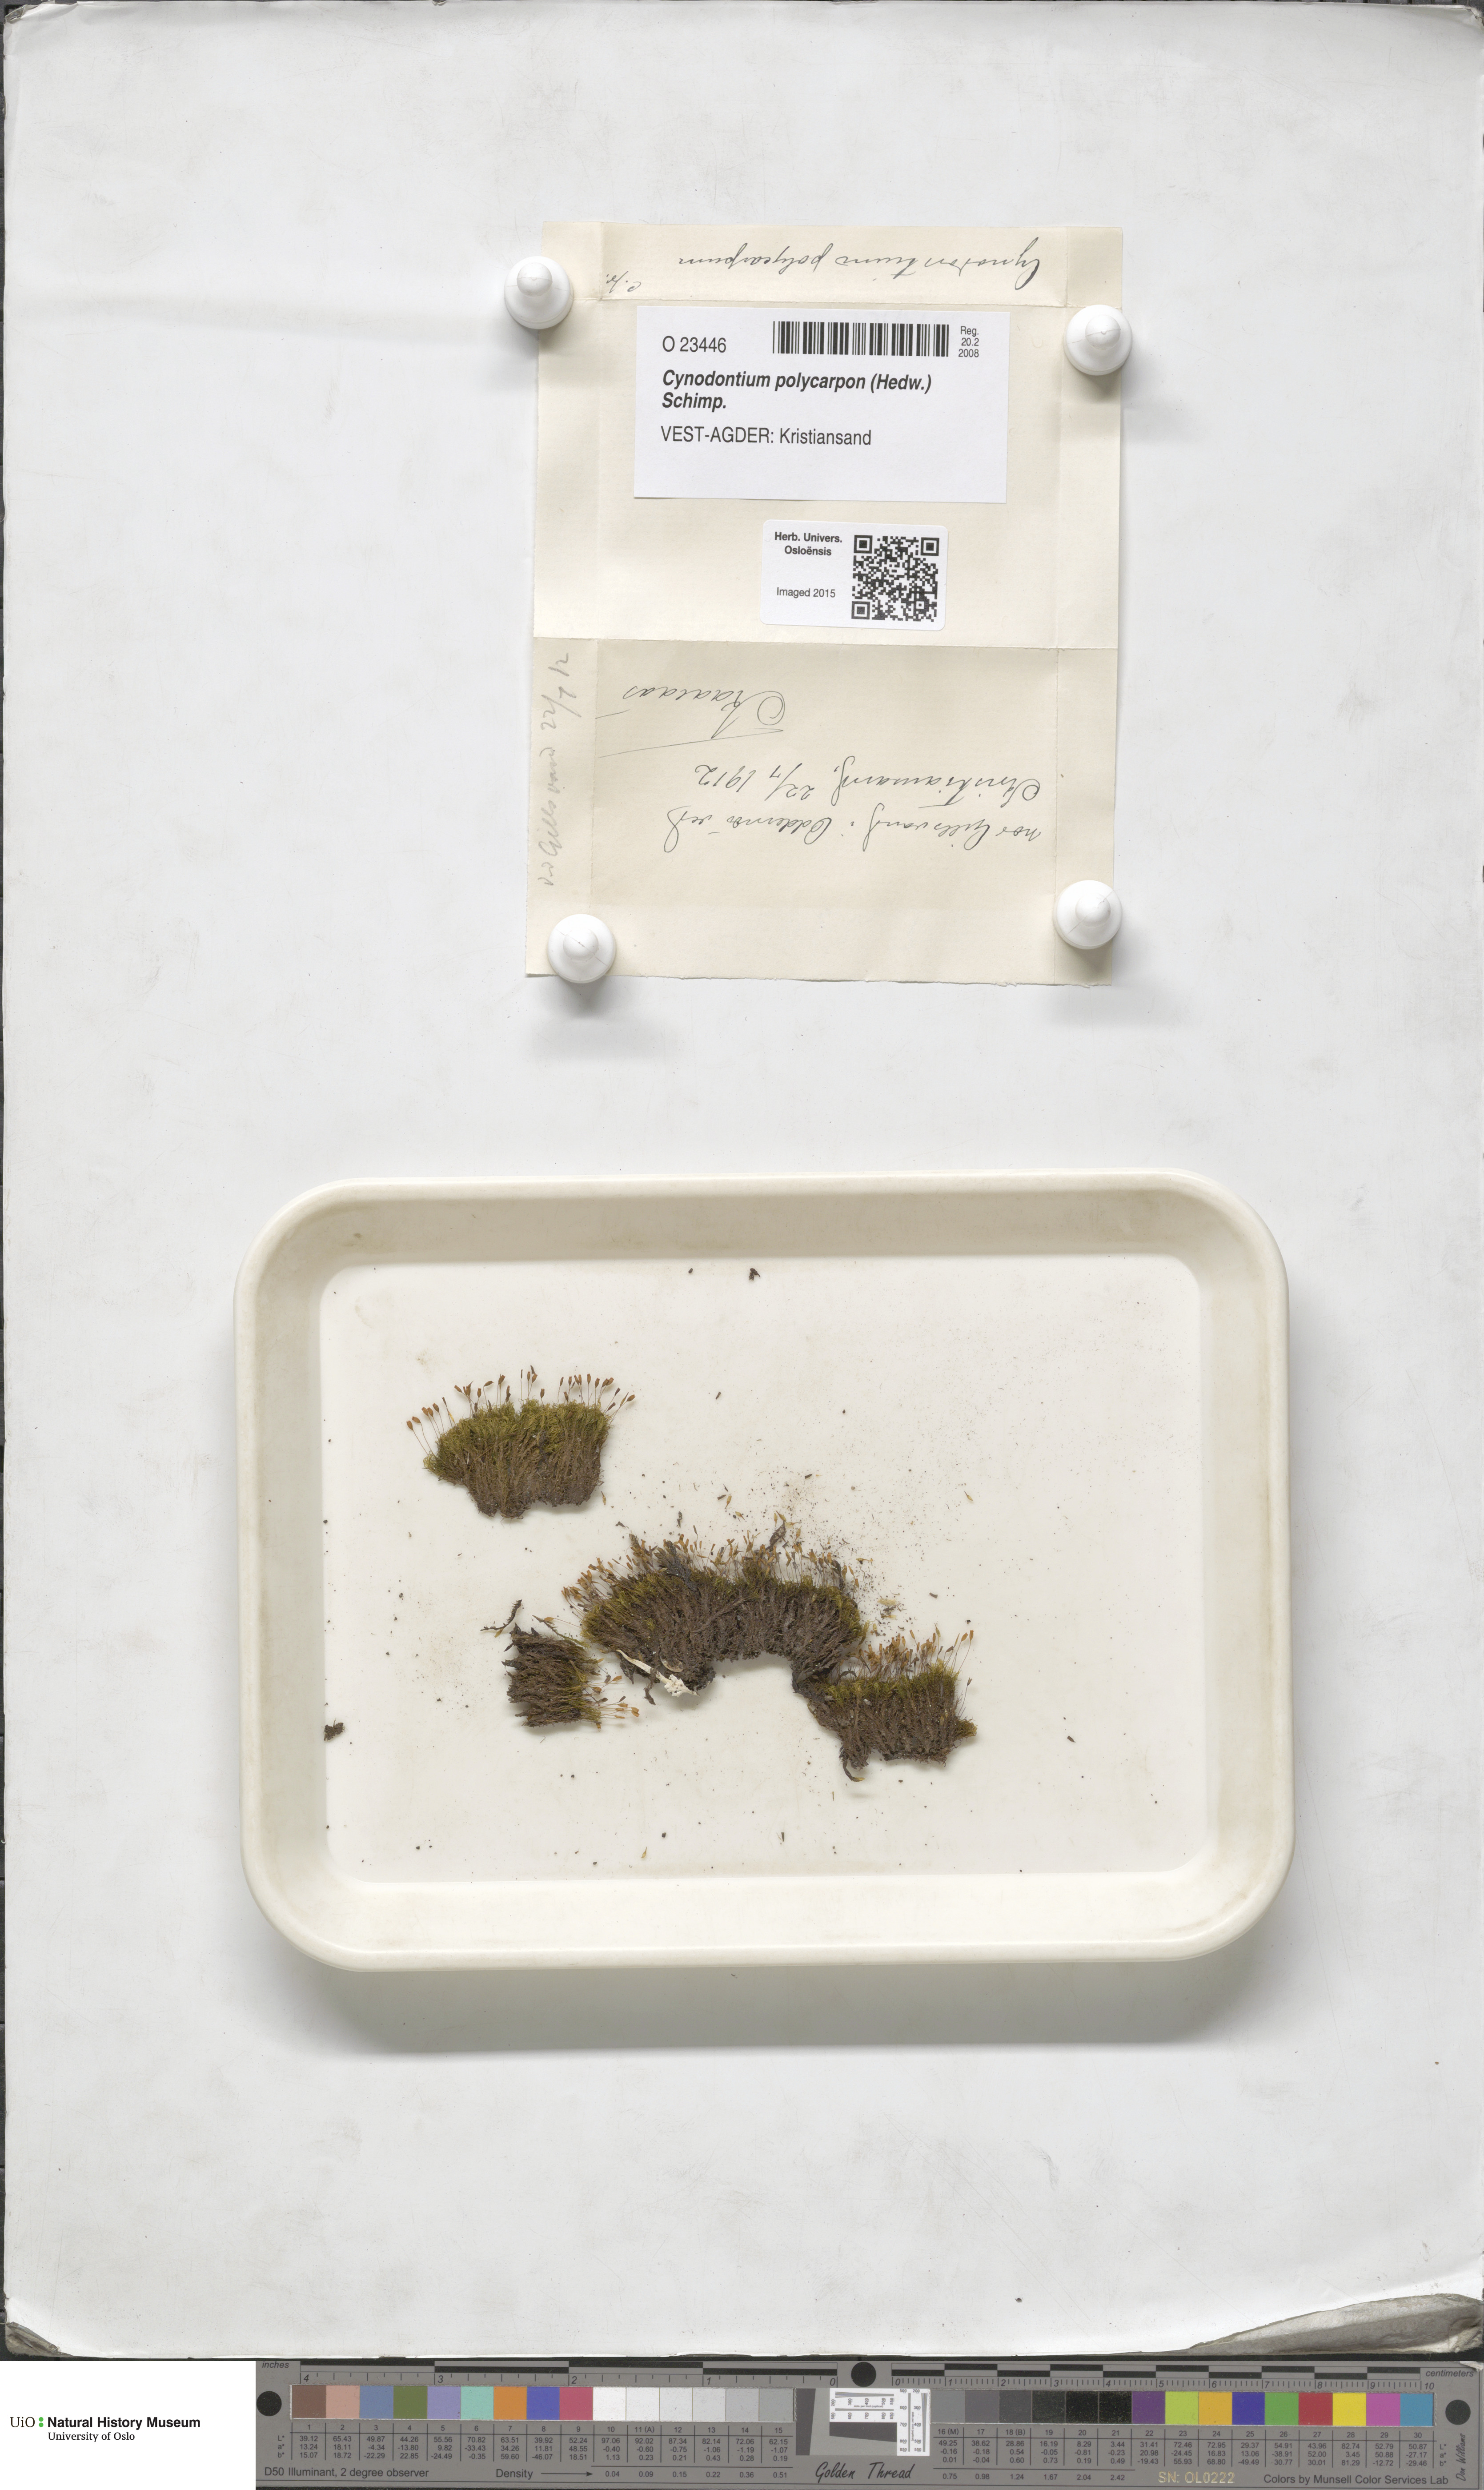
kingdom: Plantae
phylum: Bryophyta
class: Bryopsida
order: Dicranales
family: Rhabdoweisiaceae
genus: Cynodontium
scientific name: Cynodontium polycarpon
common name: Many-fruited dogtooth moss
